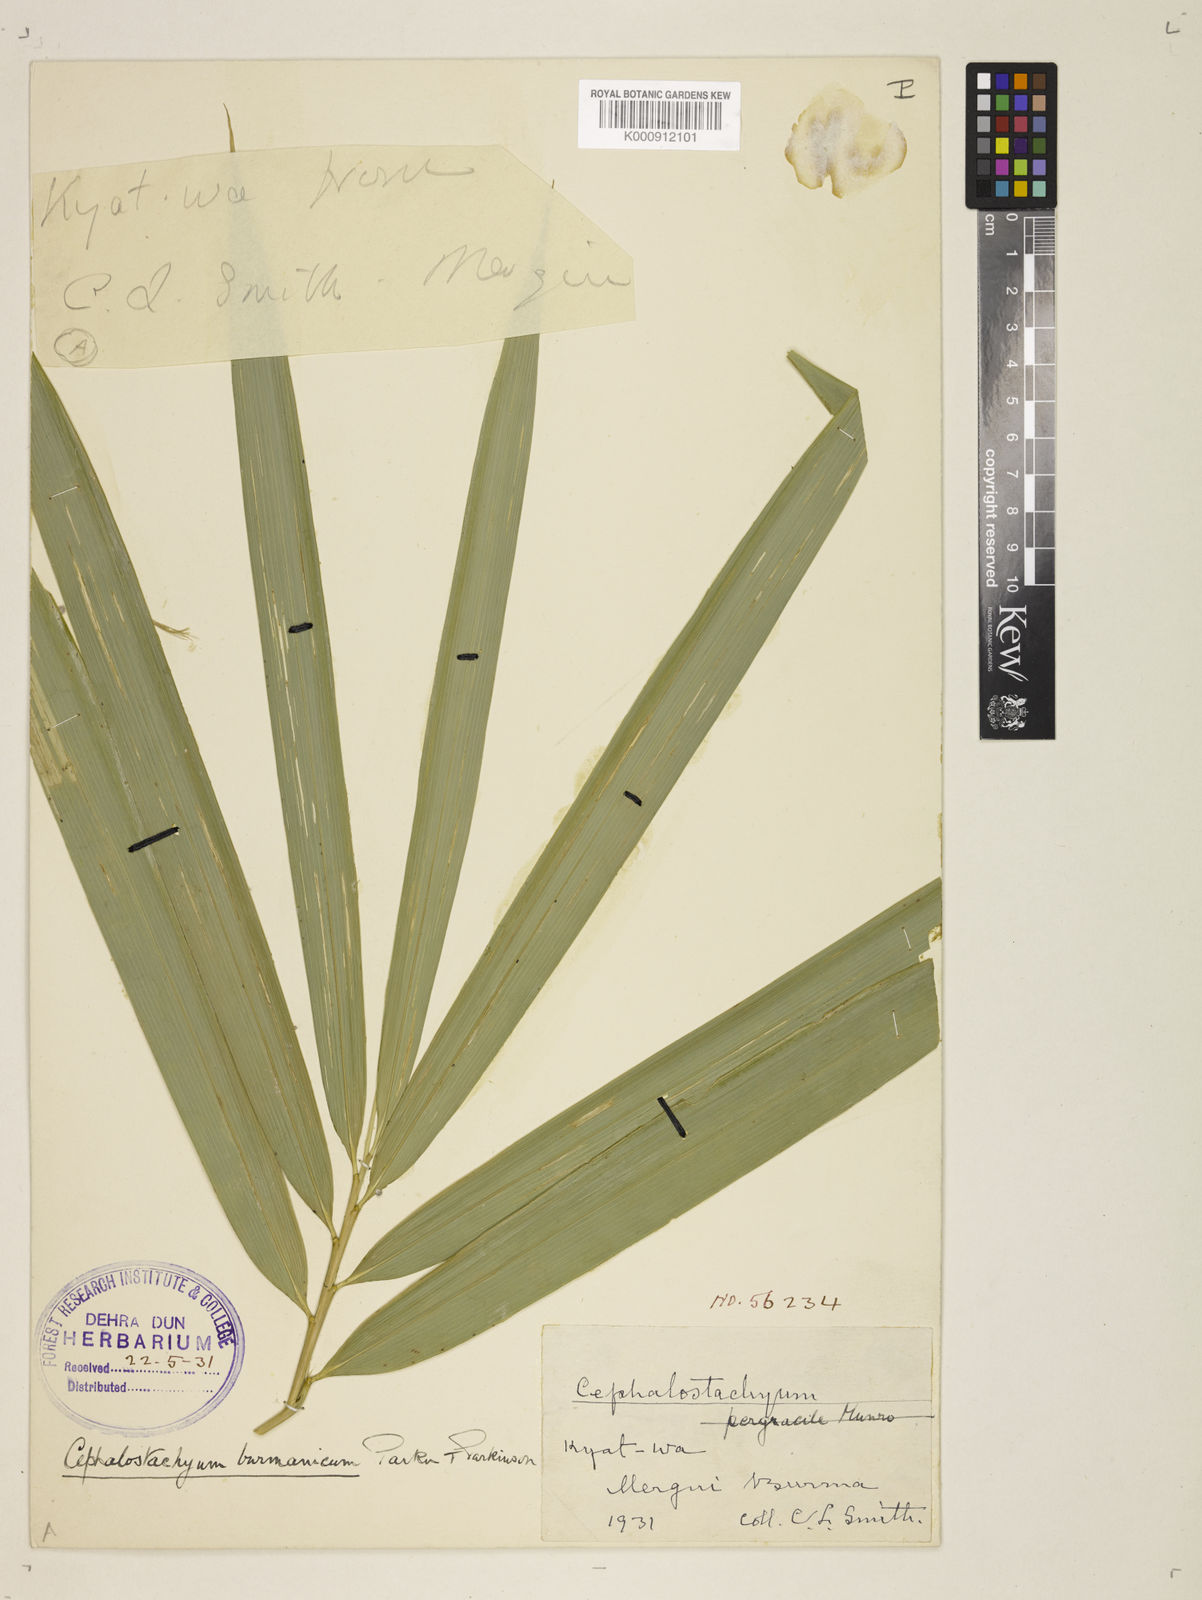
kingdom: Plantae
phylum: Tracheophyta
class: Liliopsida
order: Poales
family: Poaceae
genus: Cephalostachyum
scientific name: Cephalostachyum burmanicum
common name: Burma bambooshrub
